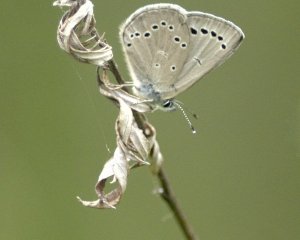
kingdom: Animalia
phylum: Arthropoda
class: Insecta
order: Lepidoptera
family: Lycaenidae
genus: Glaucopsyche
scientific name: Glaucopsyche lygdamus
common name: Silvery Blue
